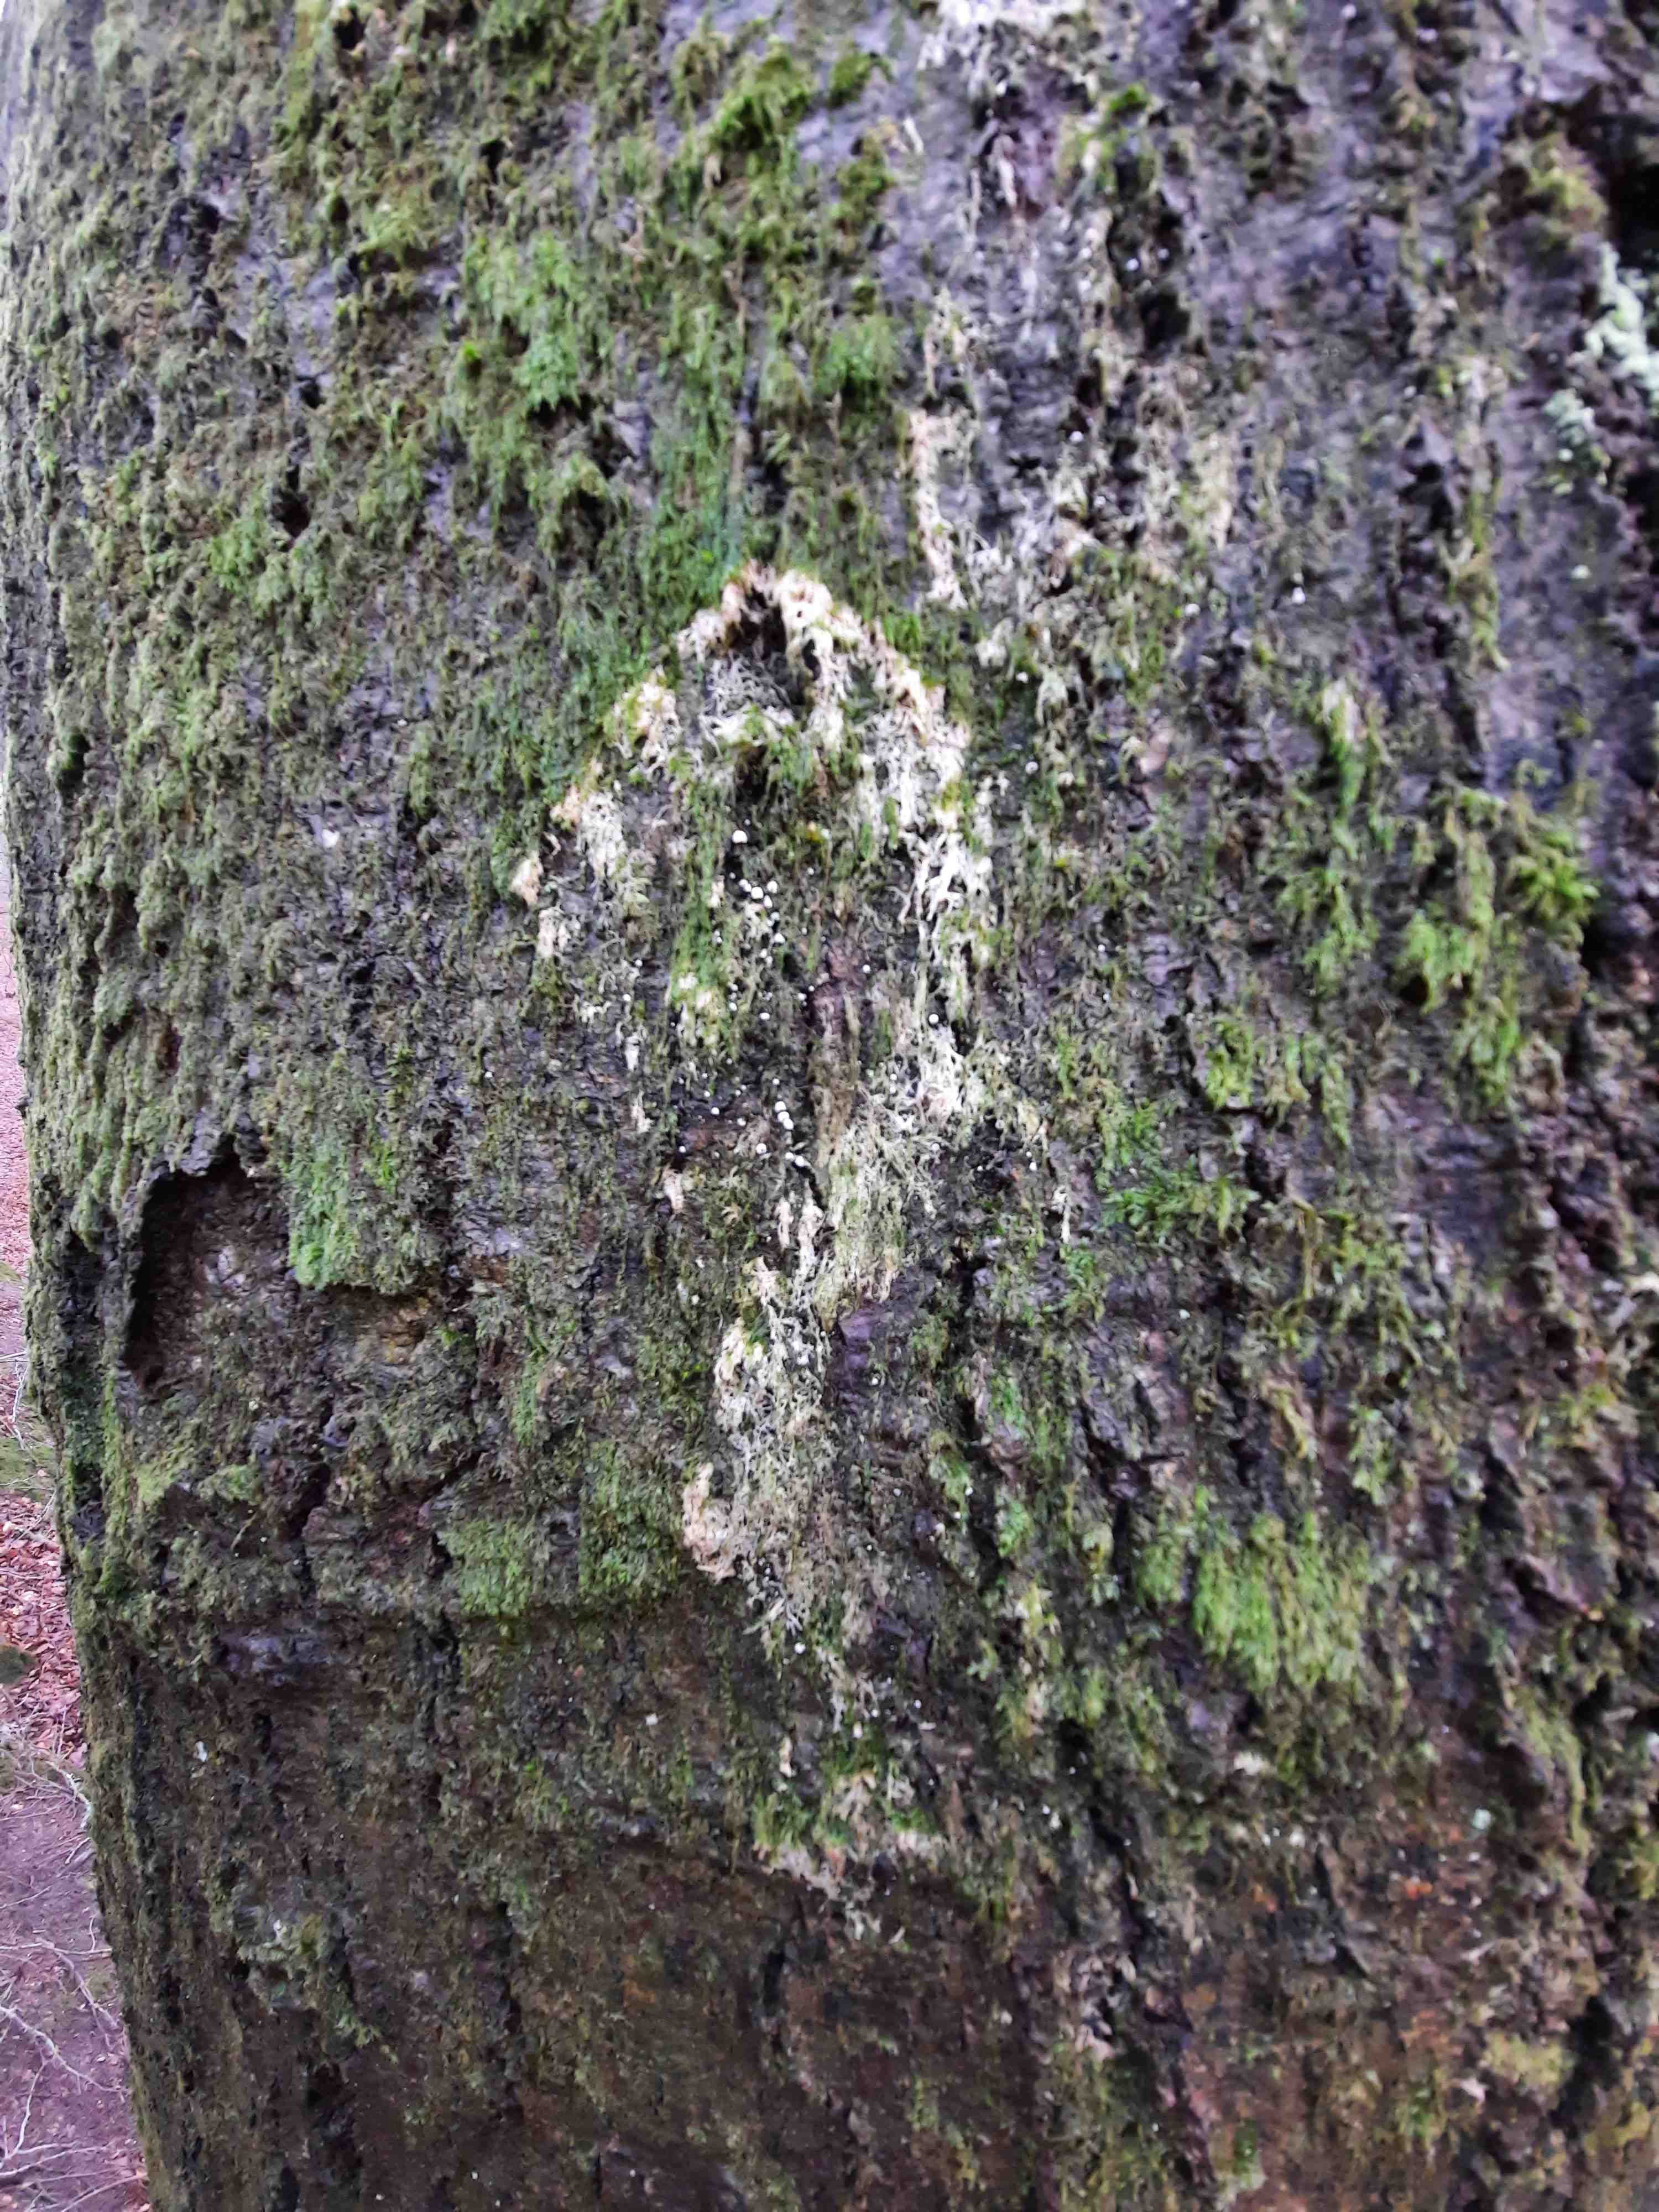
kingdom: Fungi
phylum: Basidiomycota
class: Agaricomycetes
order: Agaricales
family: Chromocyphellaceae
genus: Chromocyphella
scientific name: Chromocyphella muscicola
